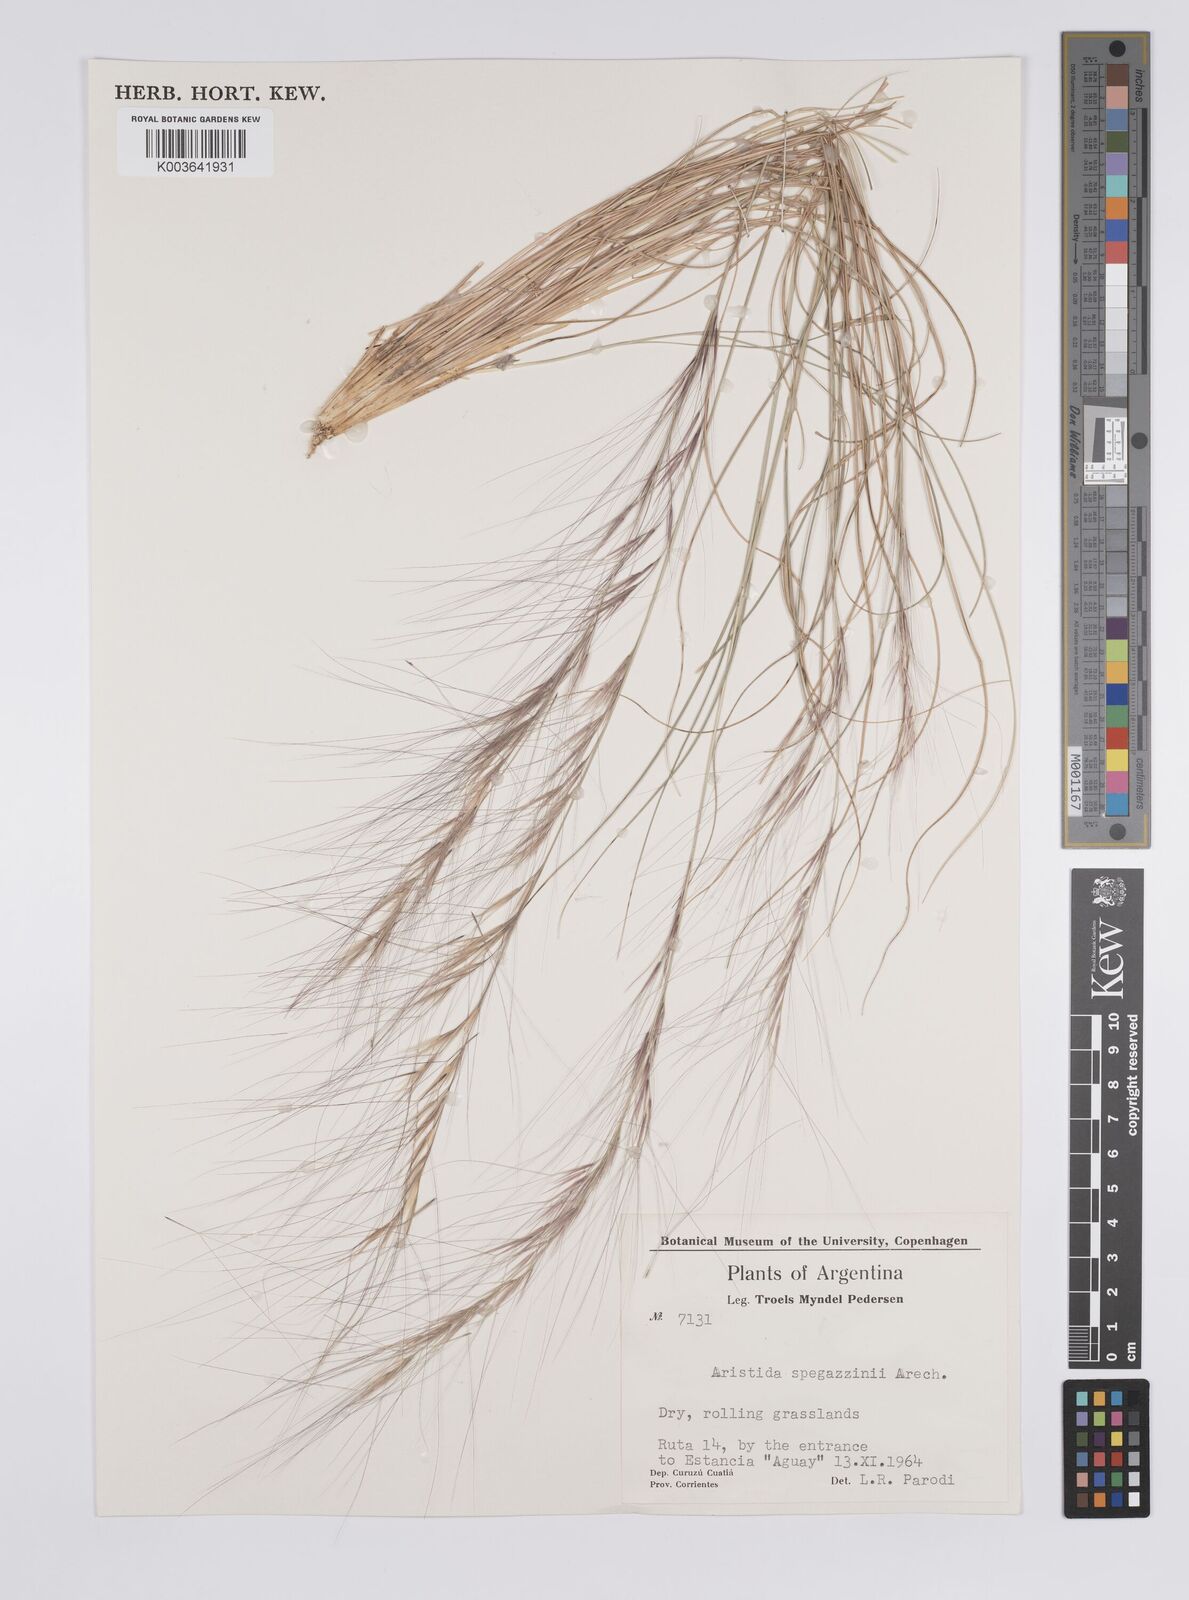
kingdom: Plantae
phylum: Tracheophyta
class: Liliopsida
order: Poales
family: Poaceae
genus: Aristida
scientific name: Aristida spegazzinii
